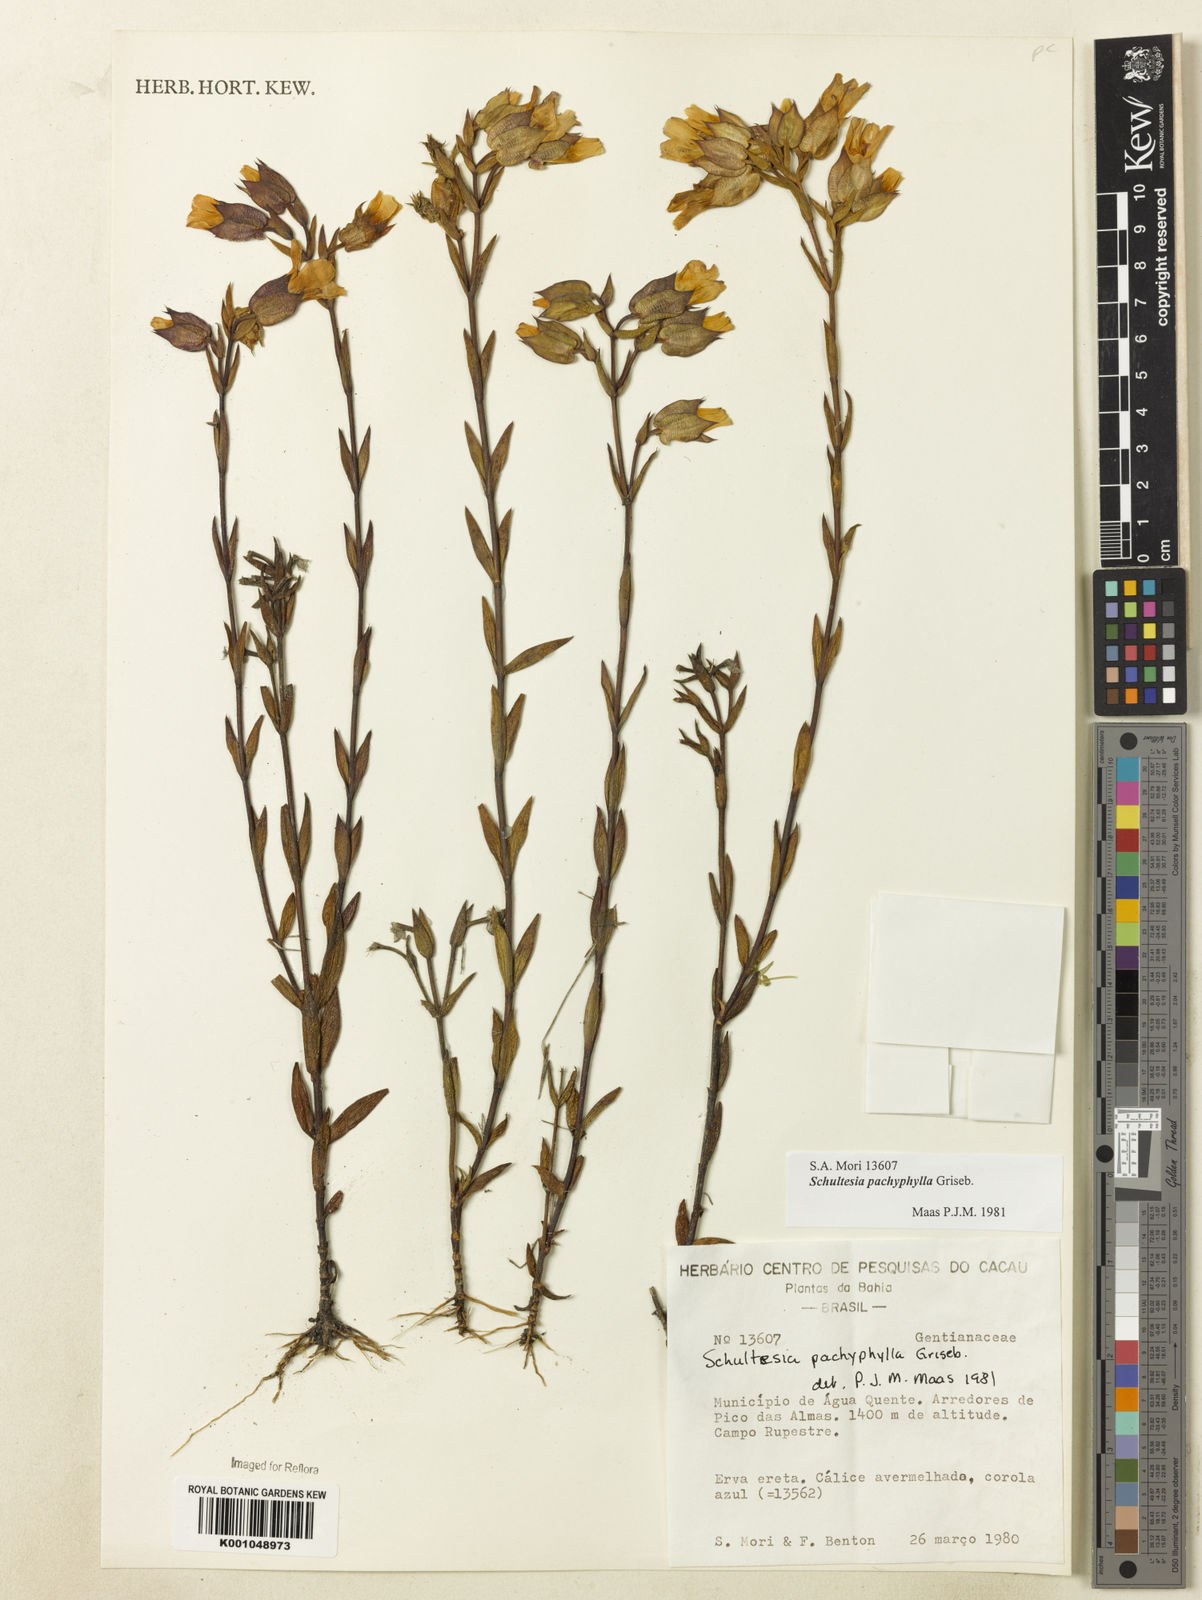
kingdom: Plantae
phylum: Tracheophyta
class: Magnoliopsida
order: Gentianales
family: Gentianaceae
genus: Schultesia
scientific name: Schultesia pachyphylla
